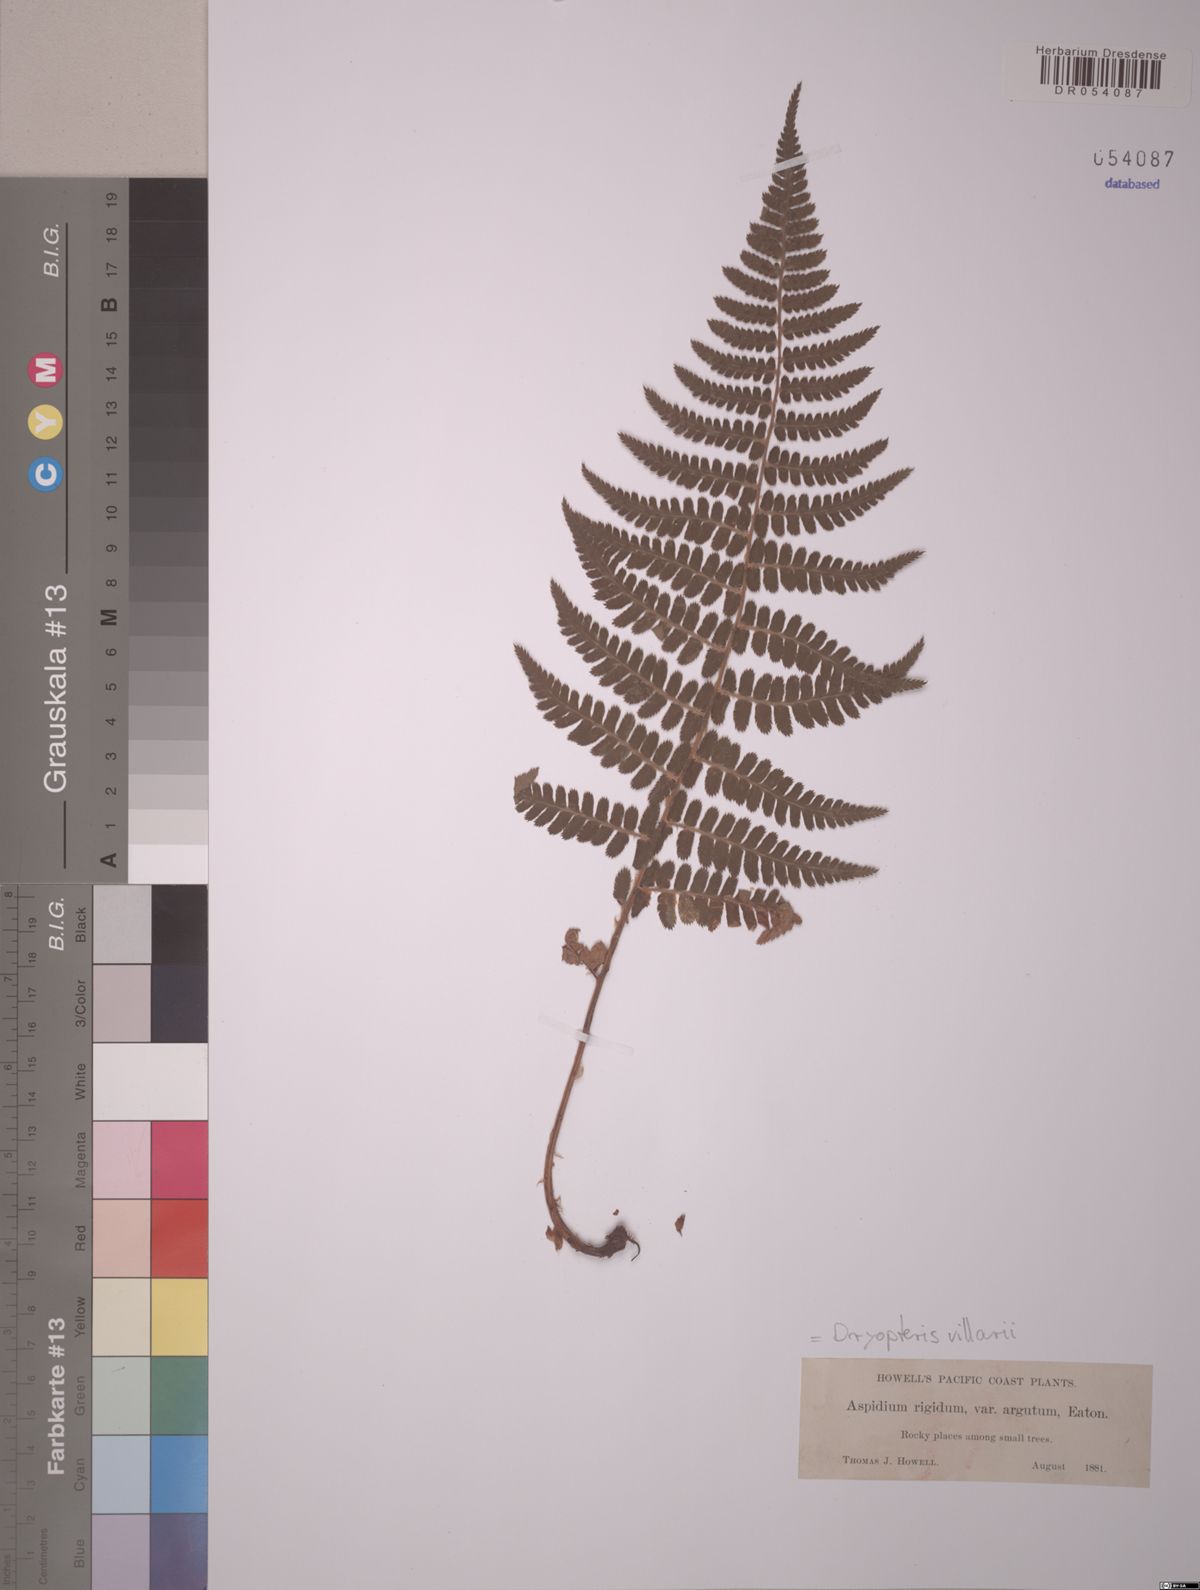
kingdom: Plantae
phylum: Tracheophyta
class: Polypodiopsida
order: Polypodiales
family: Dryopteridaceae
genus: Dryopteris
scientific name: Dryopteris villarii
